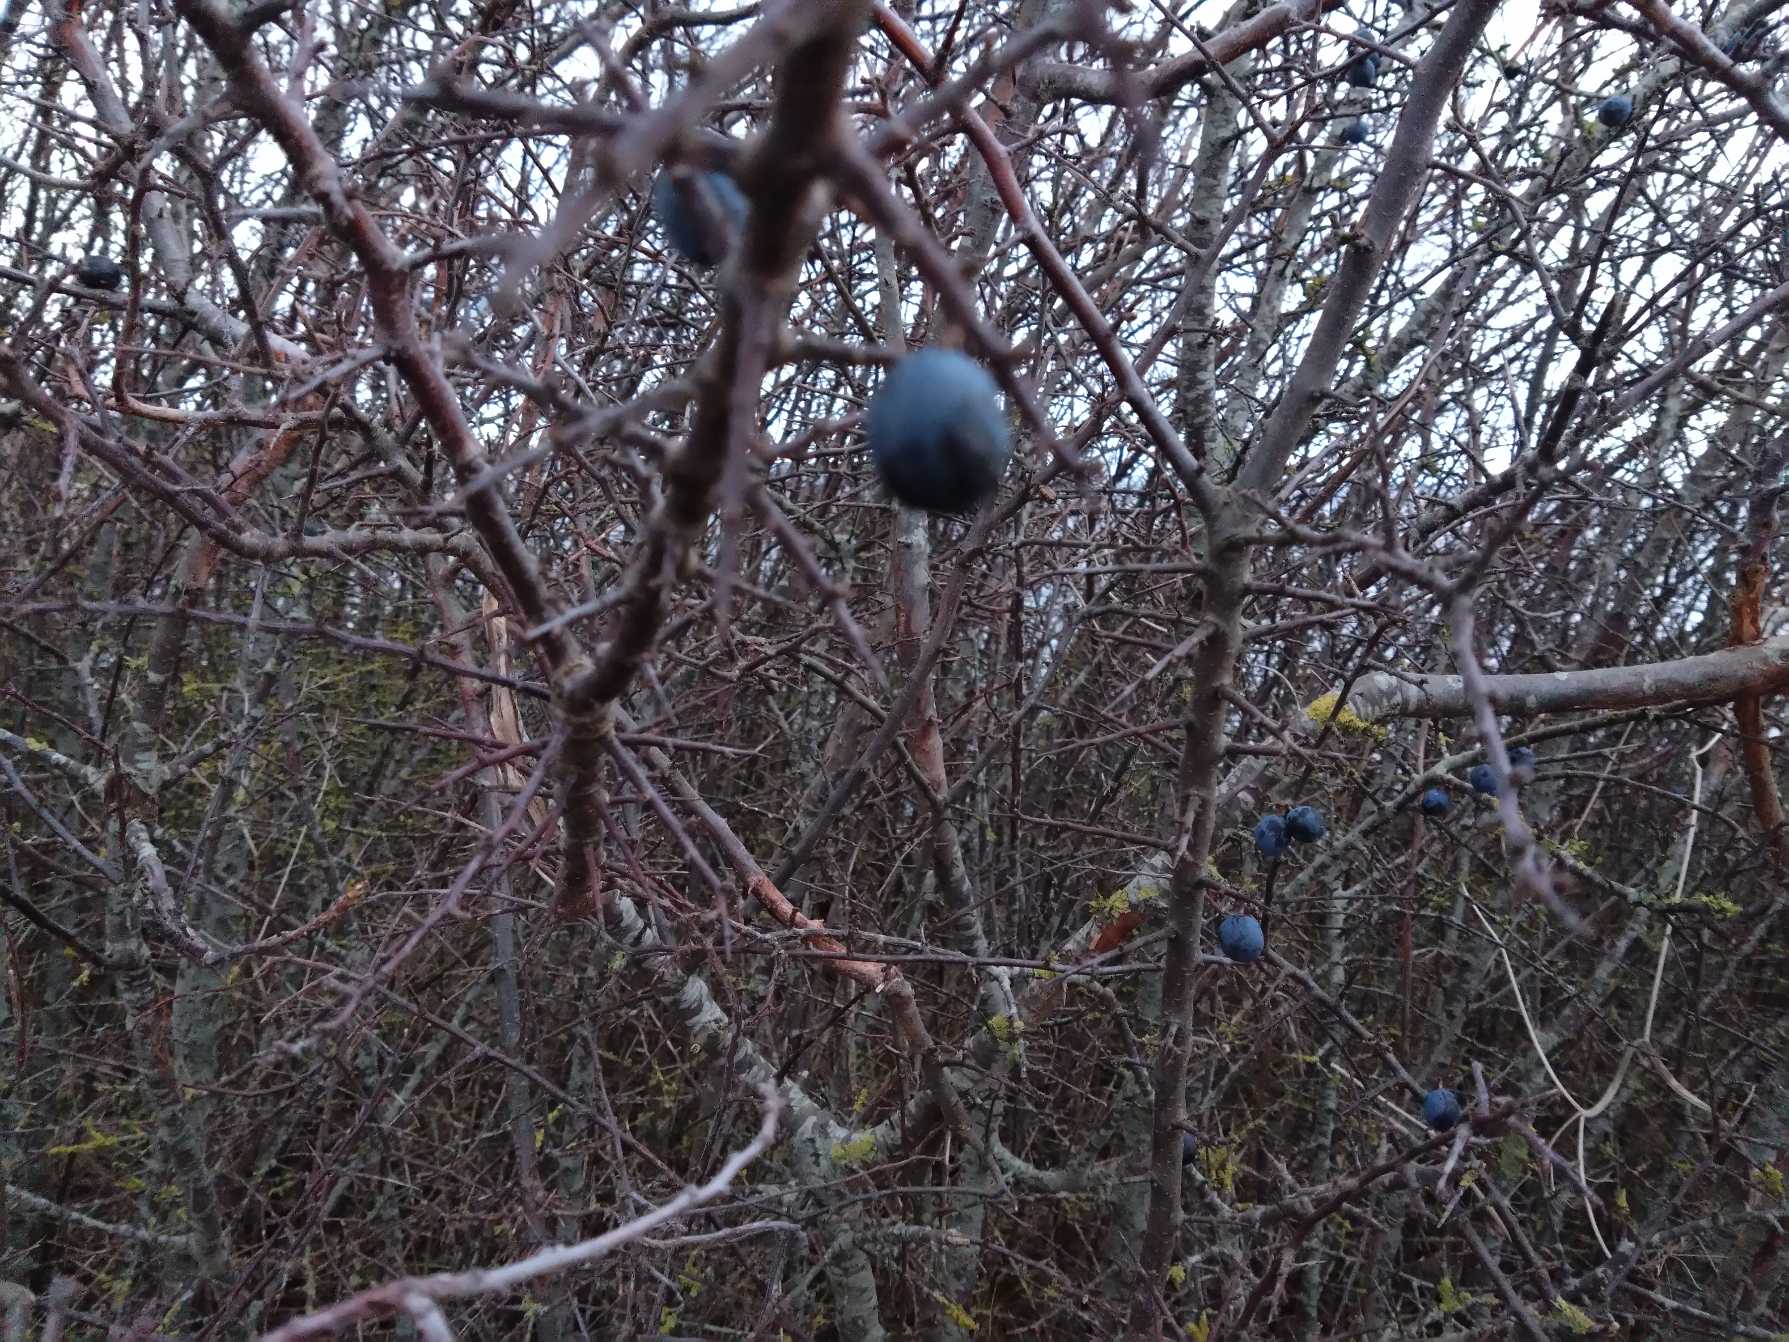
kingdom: Plantae
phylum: Tracheophyta
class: Magnoliopsida
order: Rosales
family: Rosaceae
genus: Prunus
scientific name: Prunus spinosa
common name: Slåen
